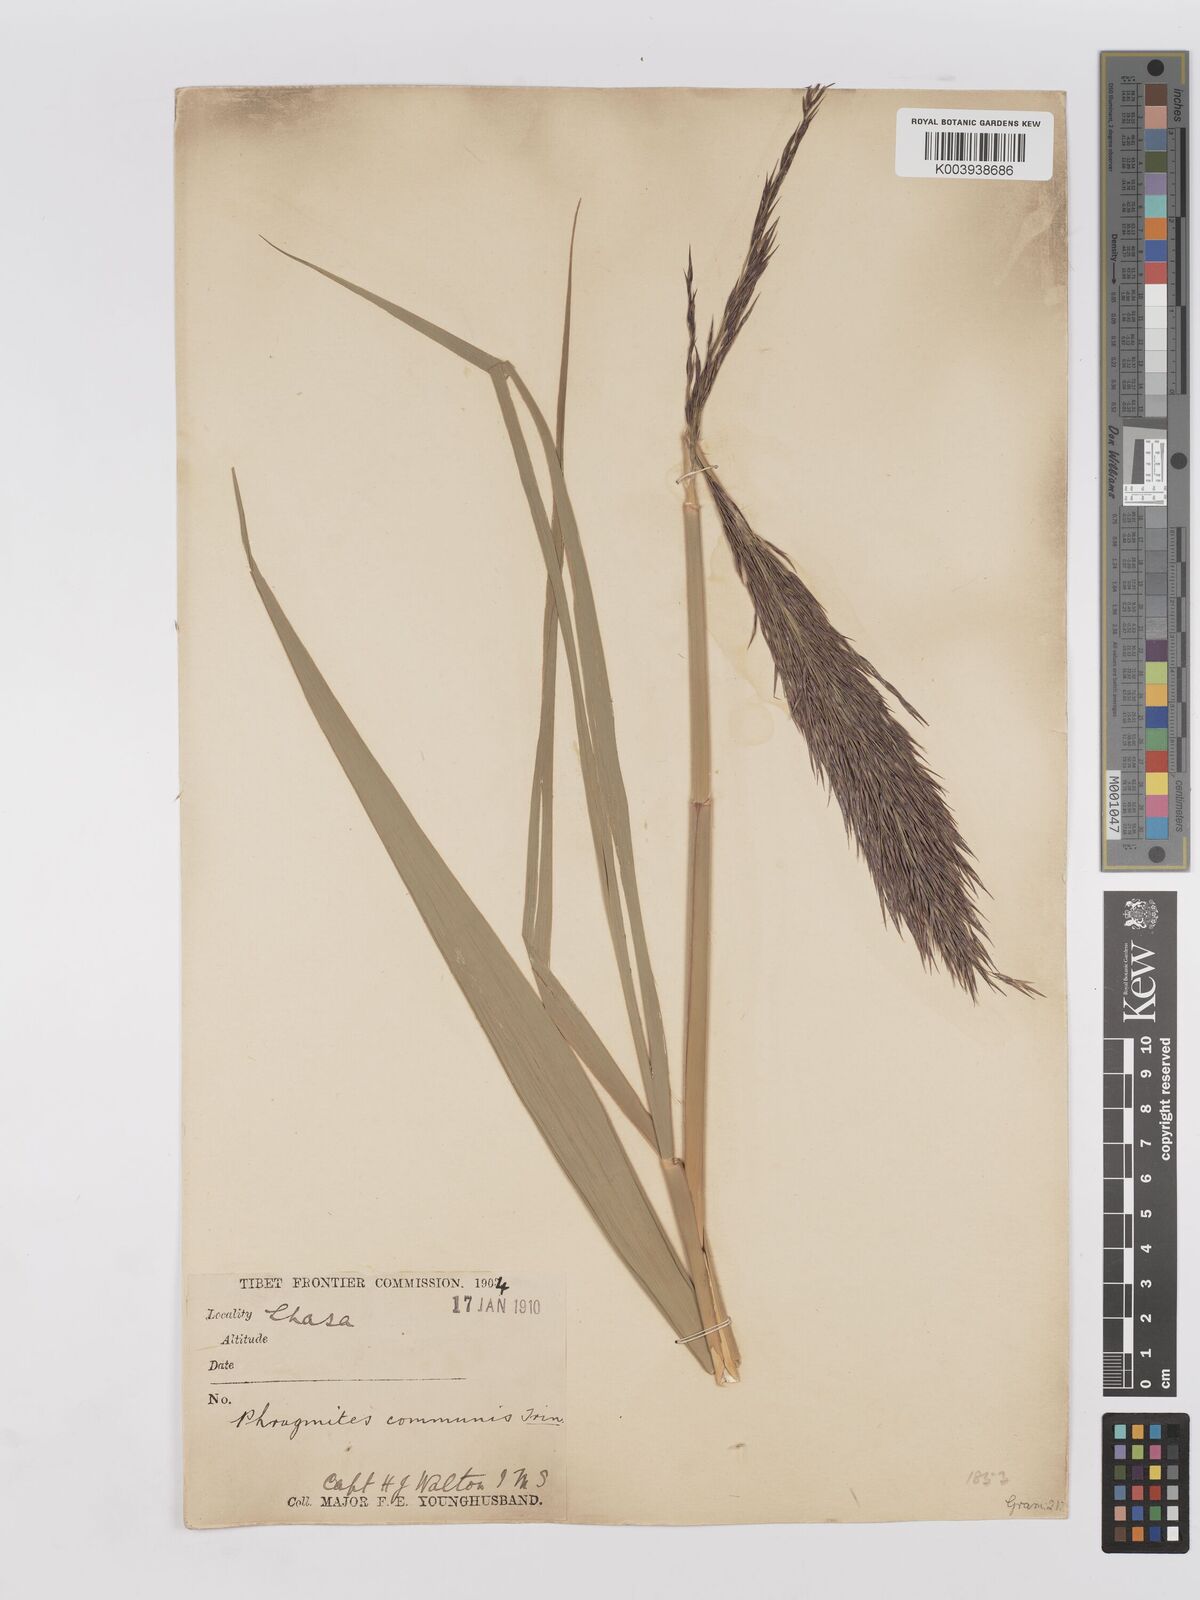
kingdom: Plantae
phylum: Tracheophyta
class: Liliopsida
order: Poales
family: Poaceae
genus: Phragmites
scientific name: Phragmites australis
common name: Common reed
